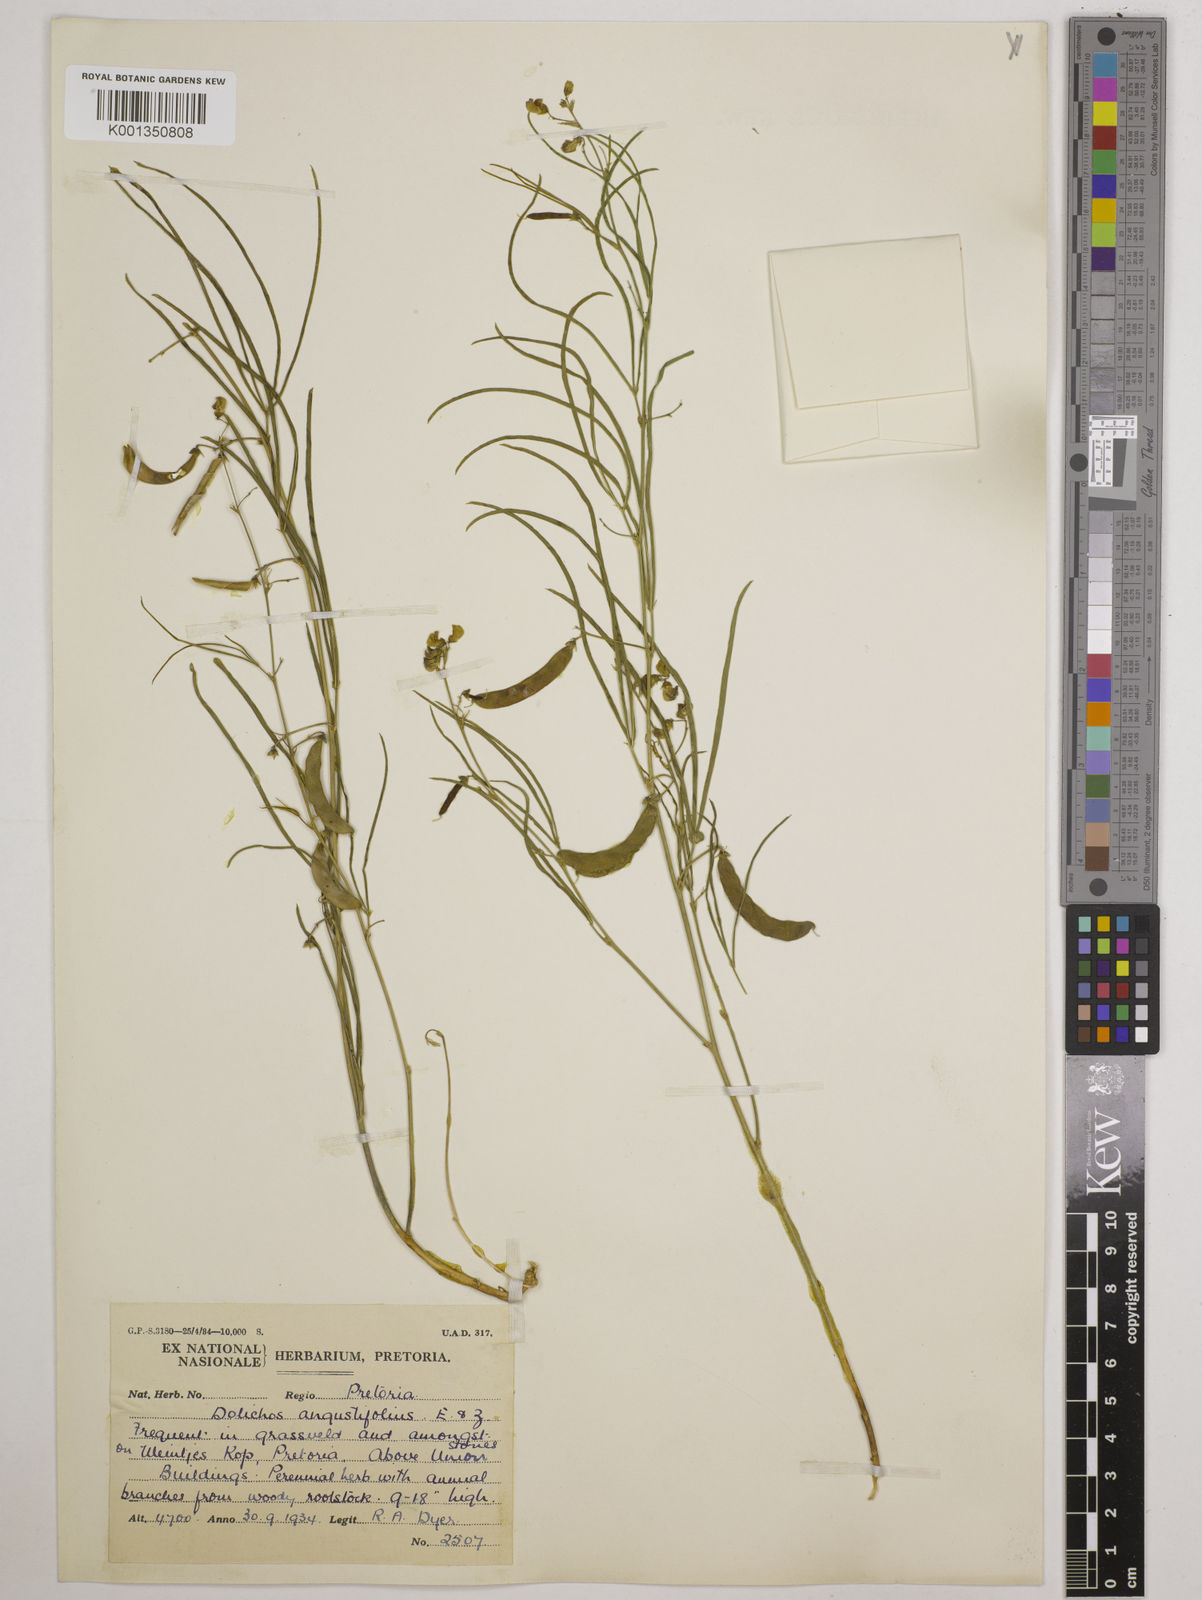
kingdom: Plantae
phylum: Tracheophyta
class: Magnoliopsida
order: Fabales
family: Fabaceae
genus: Dolichos
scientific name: Dolichos
